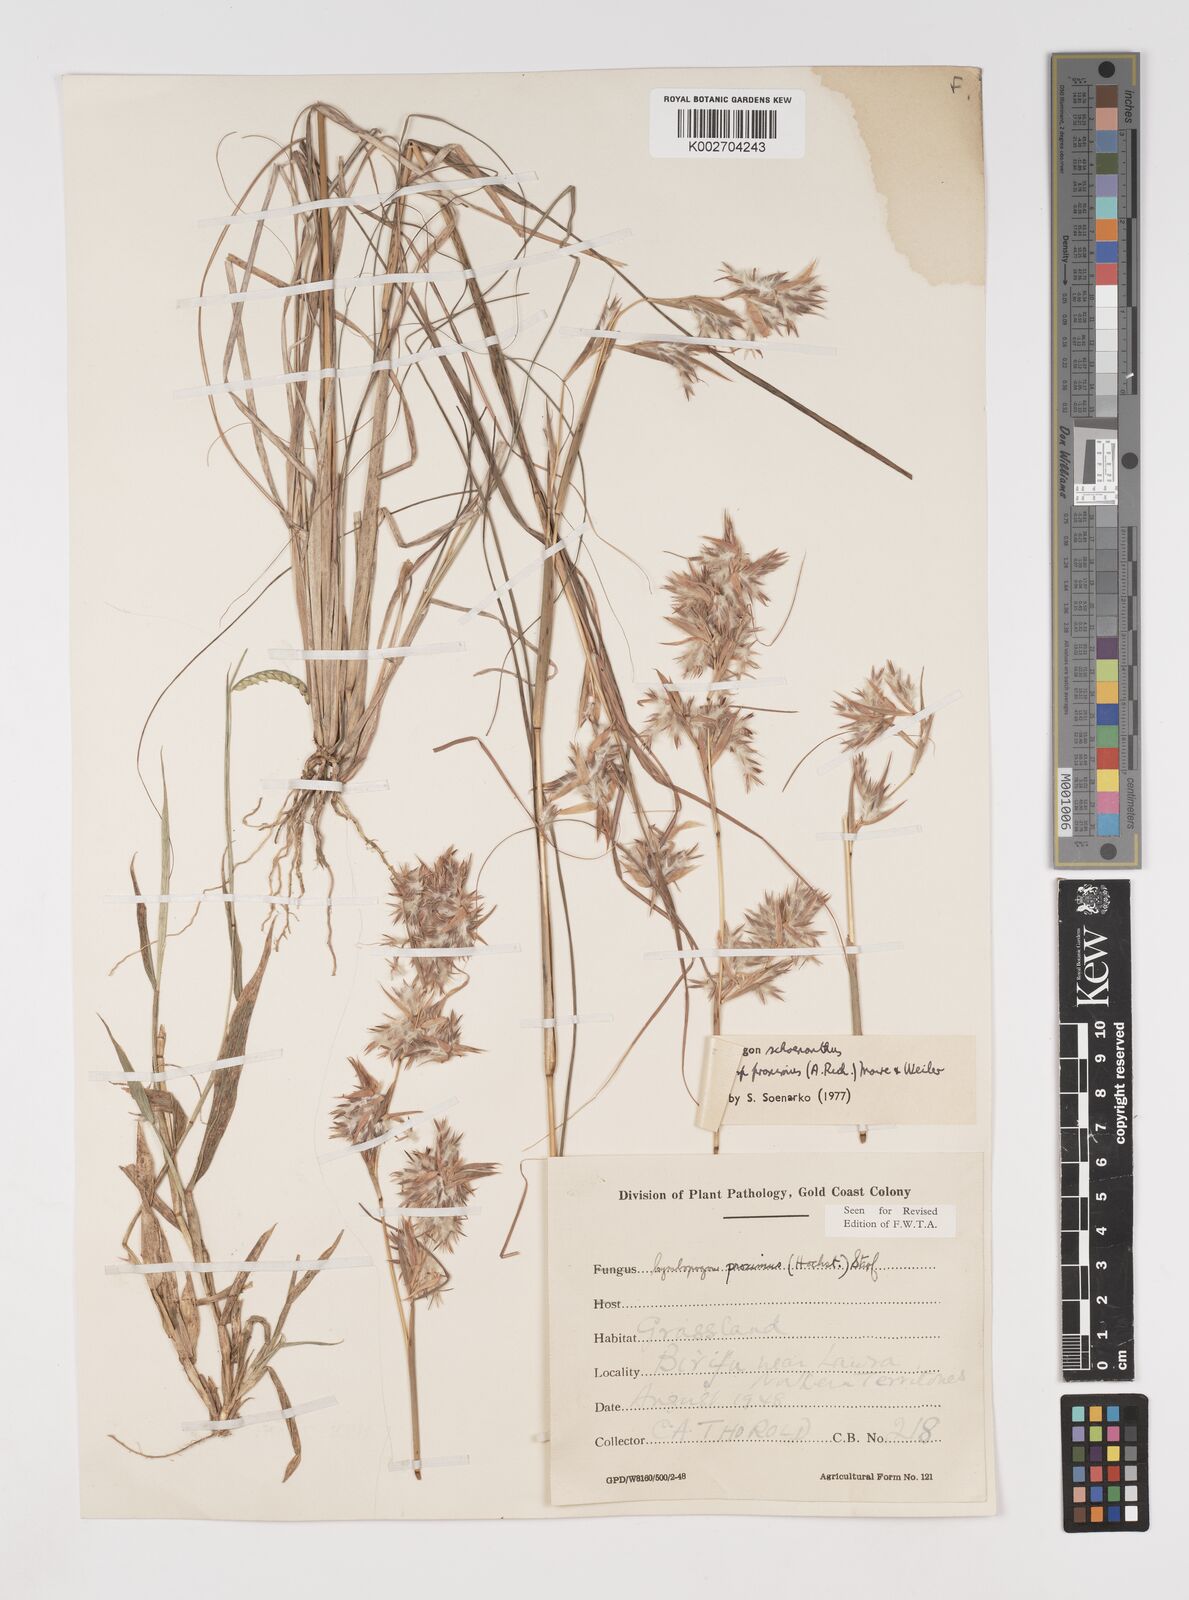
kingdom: Plantae
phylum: Tracheophyta
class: Liliopsida
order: Poales
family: Poaceae
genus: Cymbopogon
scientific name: Cymbopogon schoenanthus
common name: Geranium grass
